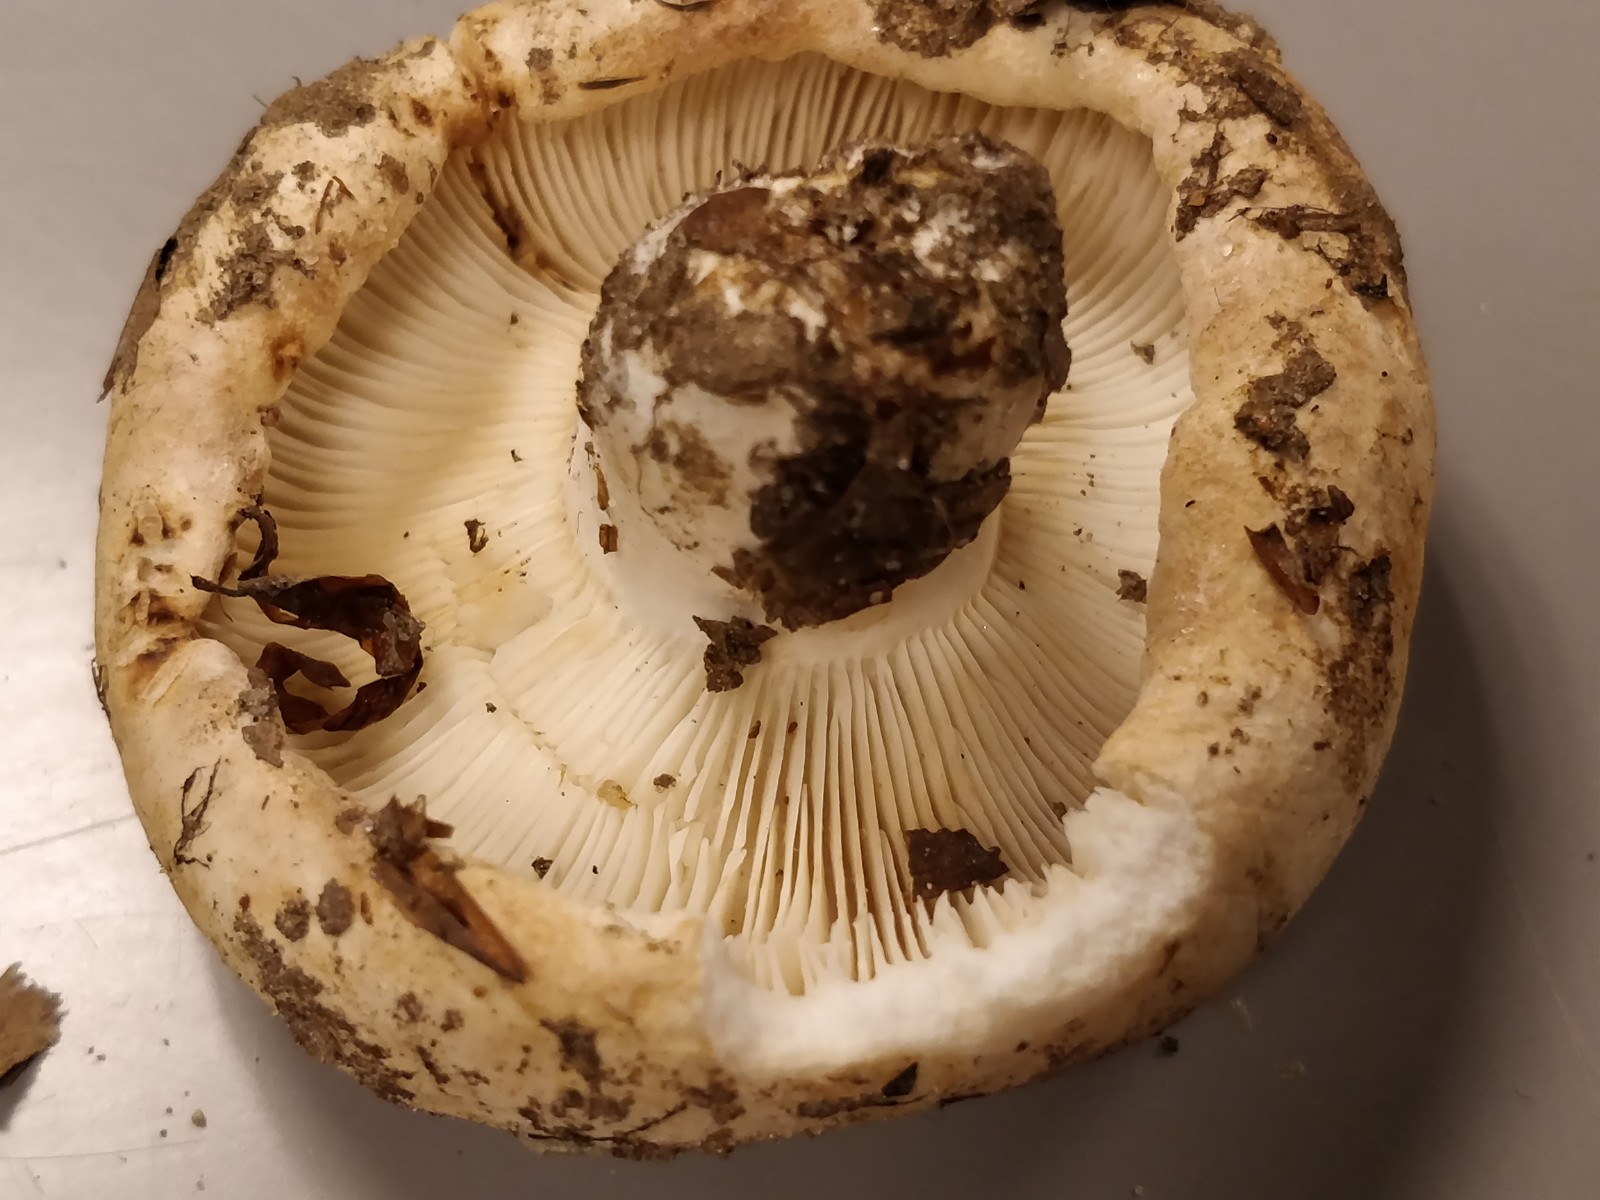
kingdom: Fungi
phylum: Basidiomycota
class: Agaricomycetes
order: Russulales
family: Russulaceae
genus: Russula
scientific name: Russula delica
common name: almindelig tragt-skørhat
